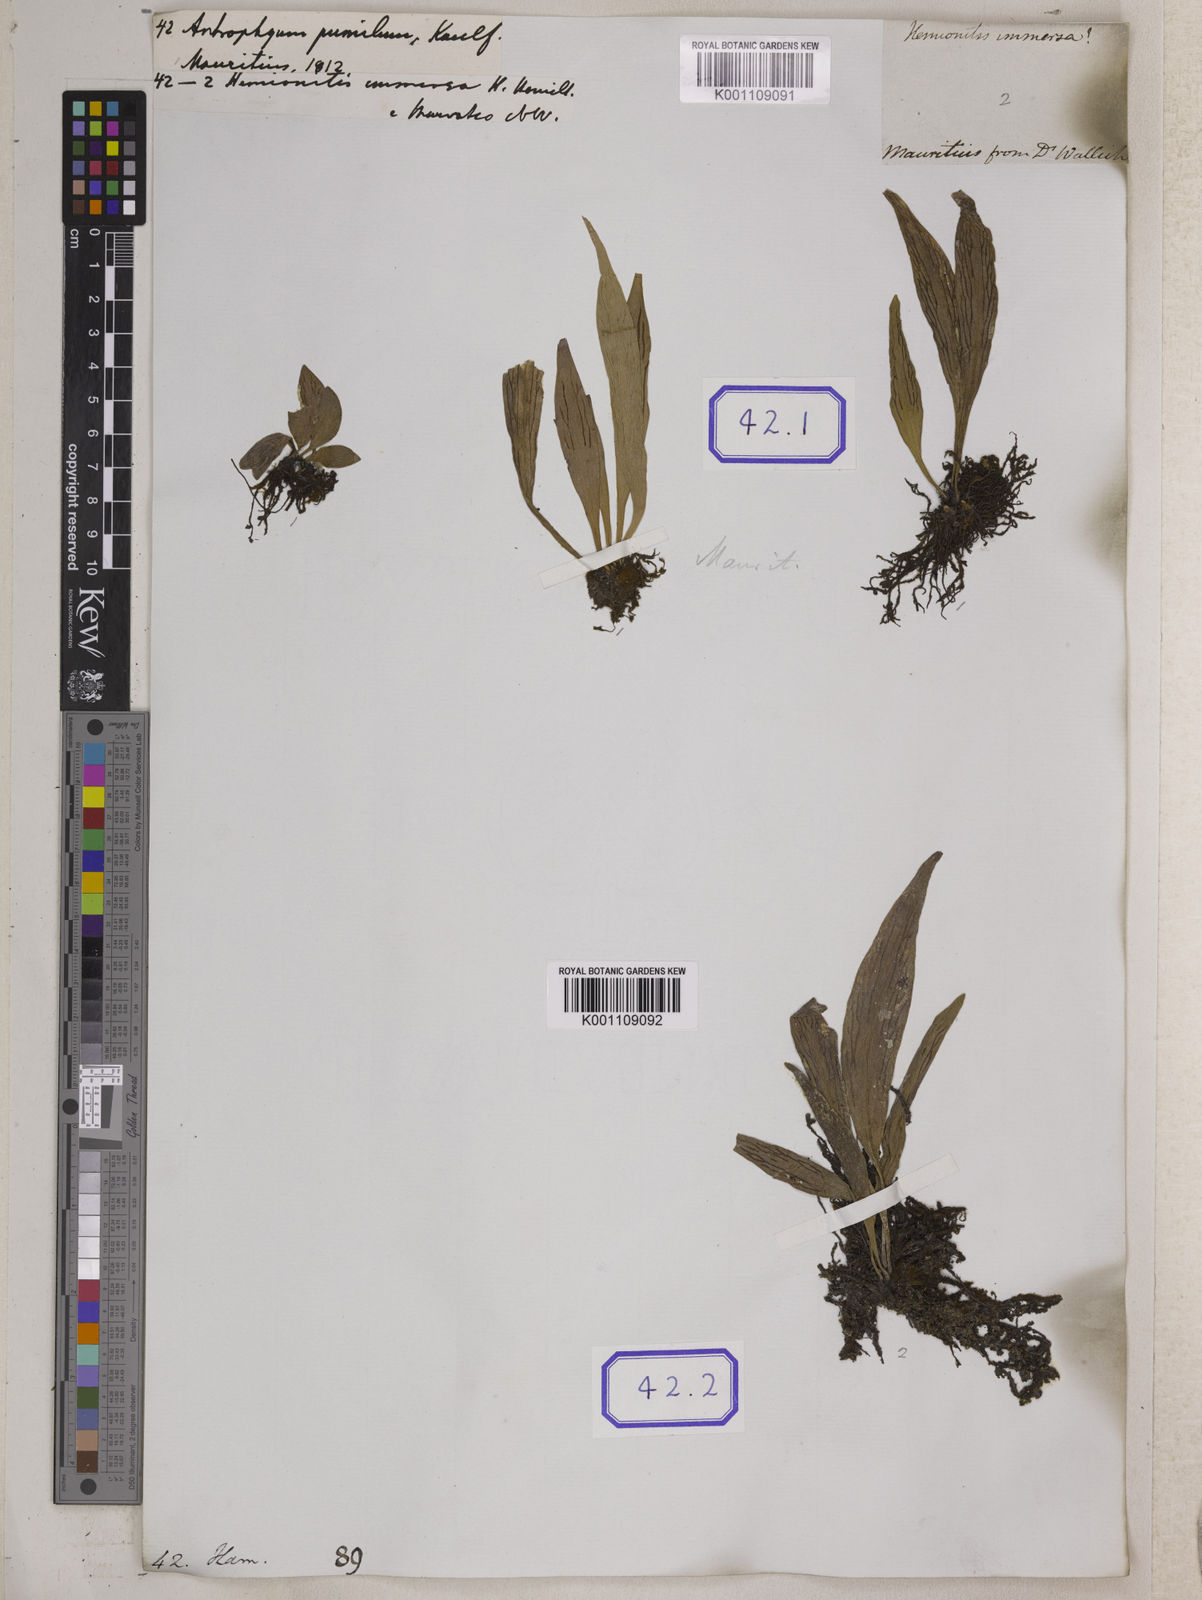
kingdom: Plantae
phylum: Tracheophyta
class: Polypodiopsida
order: Polypodiales
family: Pteridaceae
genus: Antrophyum
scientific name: Antrophyum parvulum
